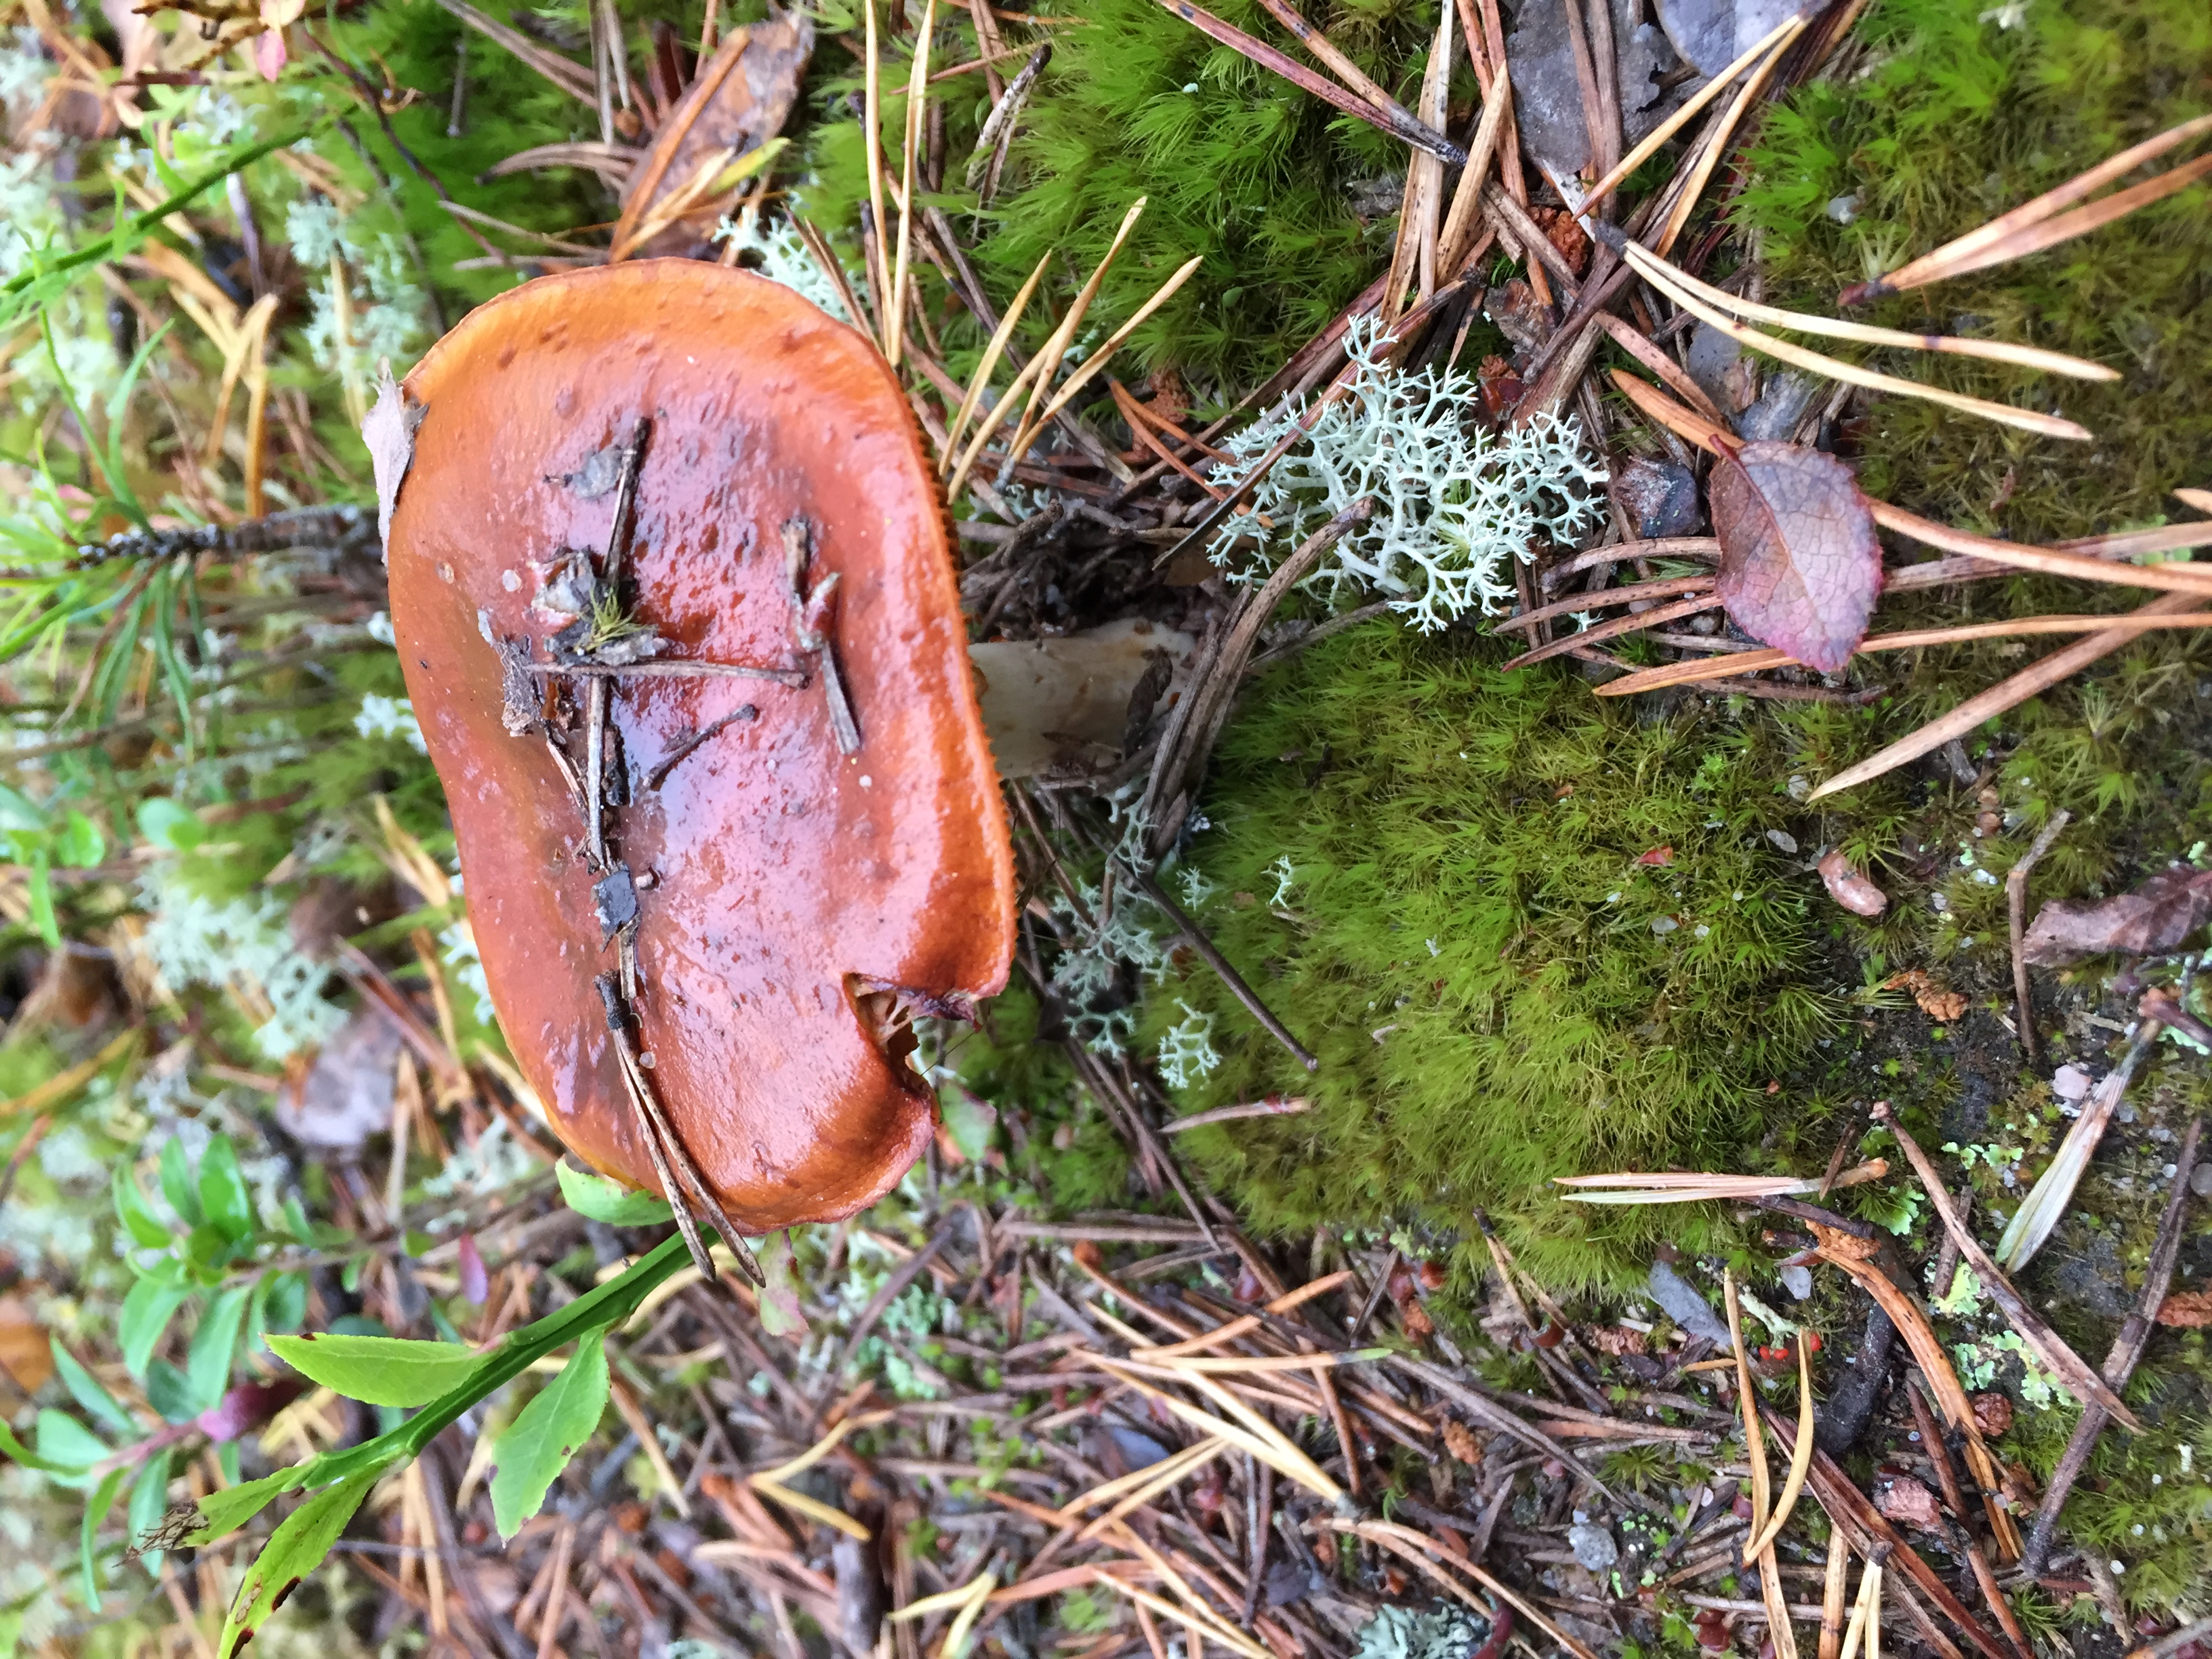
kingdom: Fungi
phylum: Basidiomycota
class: Agaricomycetes
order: Agaricales
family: Cortinariaceae
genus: Cortinarius
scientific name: Cortinarius mucosus
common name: Orange webcap
